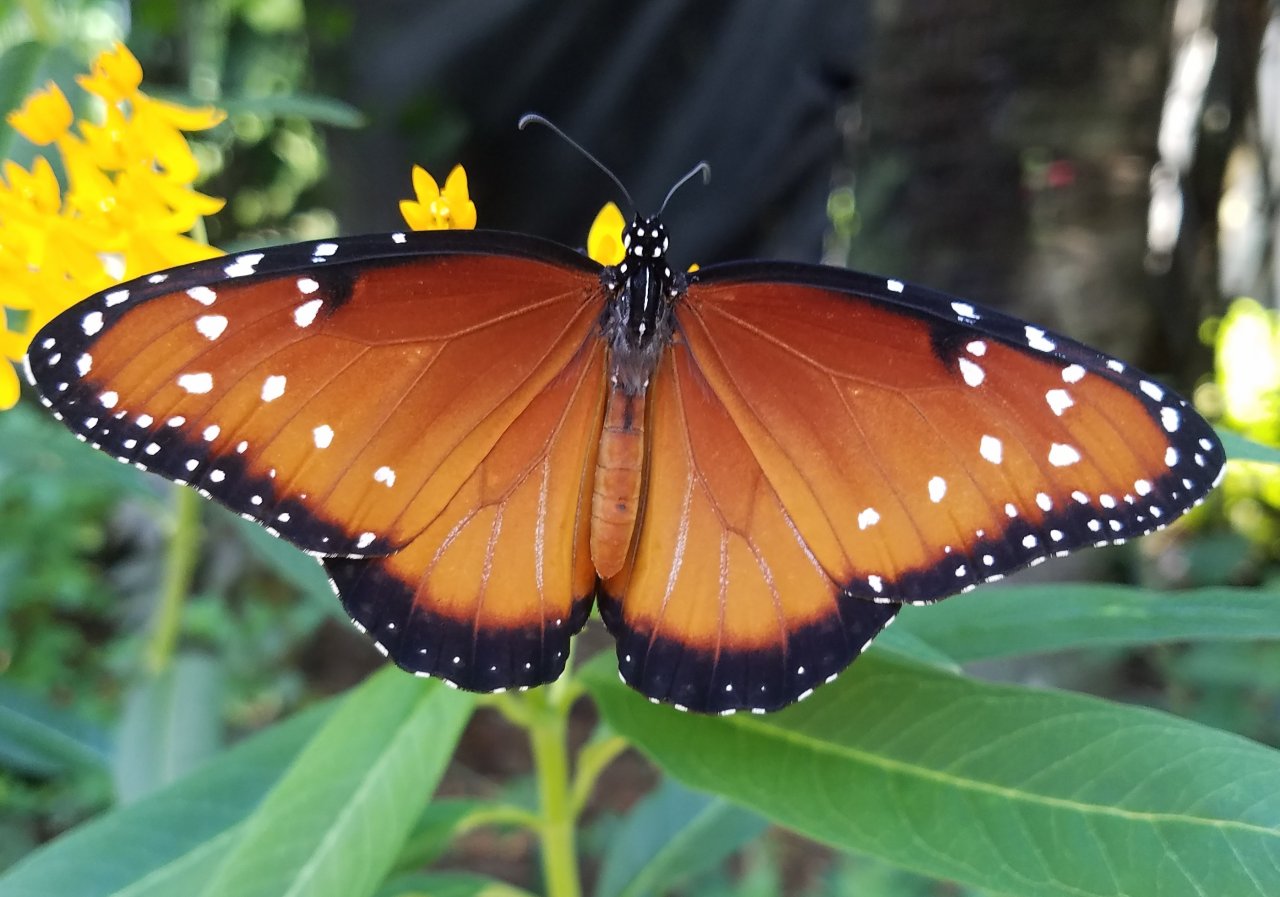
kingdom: Animalia
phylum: Arthropoda
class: Insecta
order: Lepidoptera
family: Nymphalidae
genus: Danaus
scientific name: Danaus gilippus
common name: Queen
